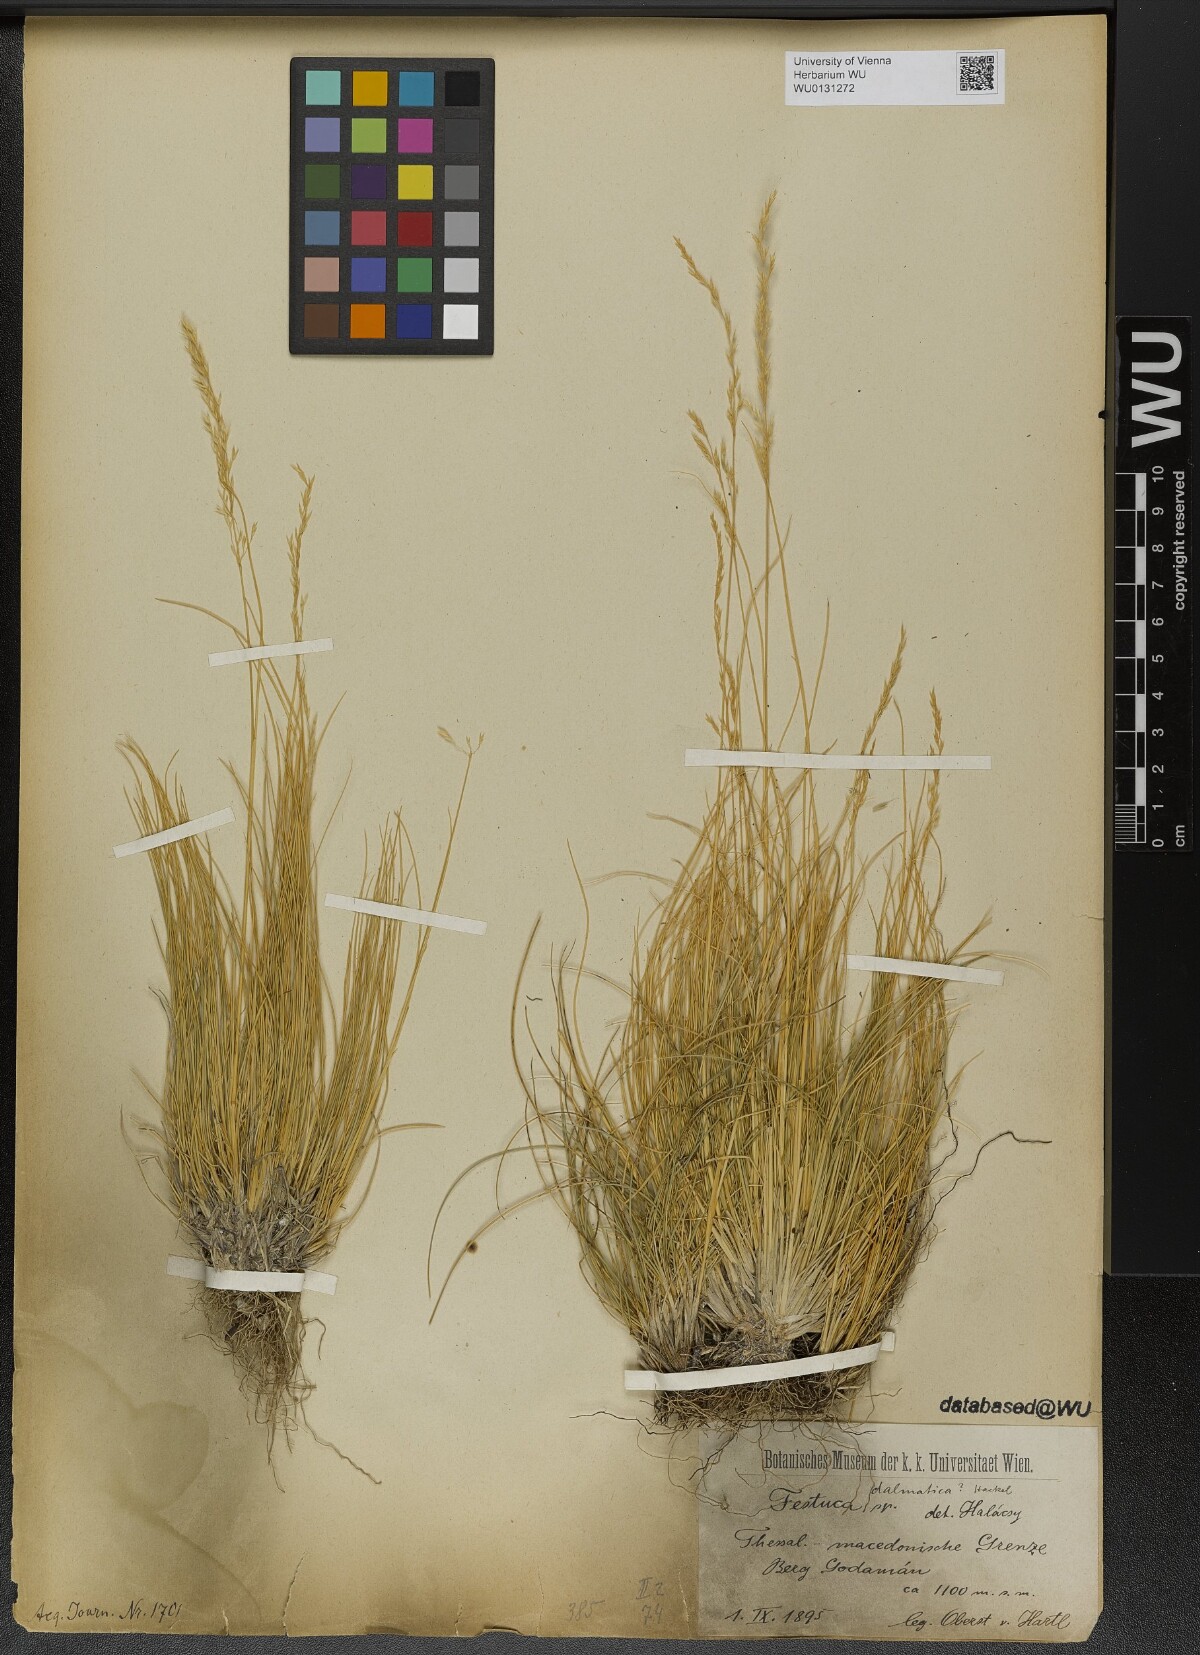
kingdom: Plantae
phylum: Tracheophyta
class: Liliopsida
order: Poales
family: Poaceae
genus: Festuca
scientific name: Festuca dalmatica
